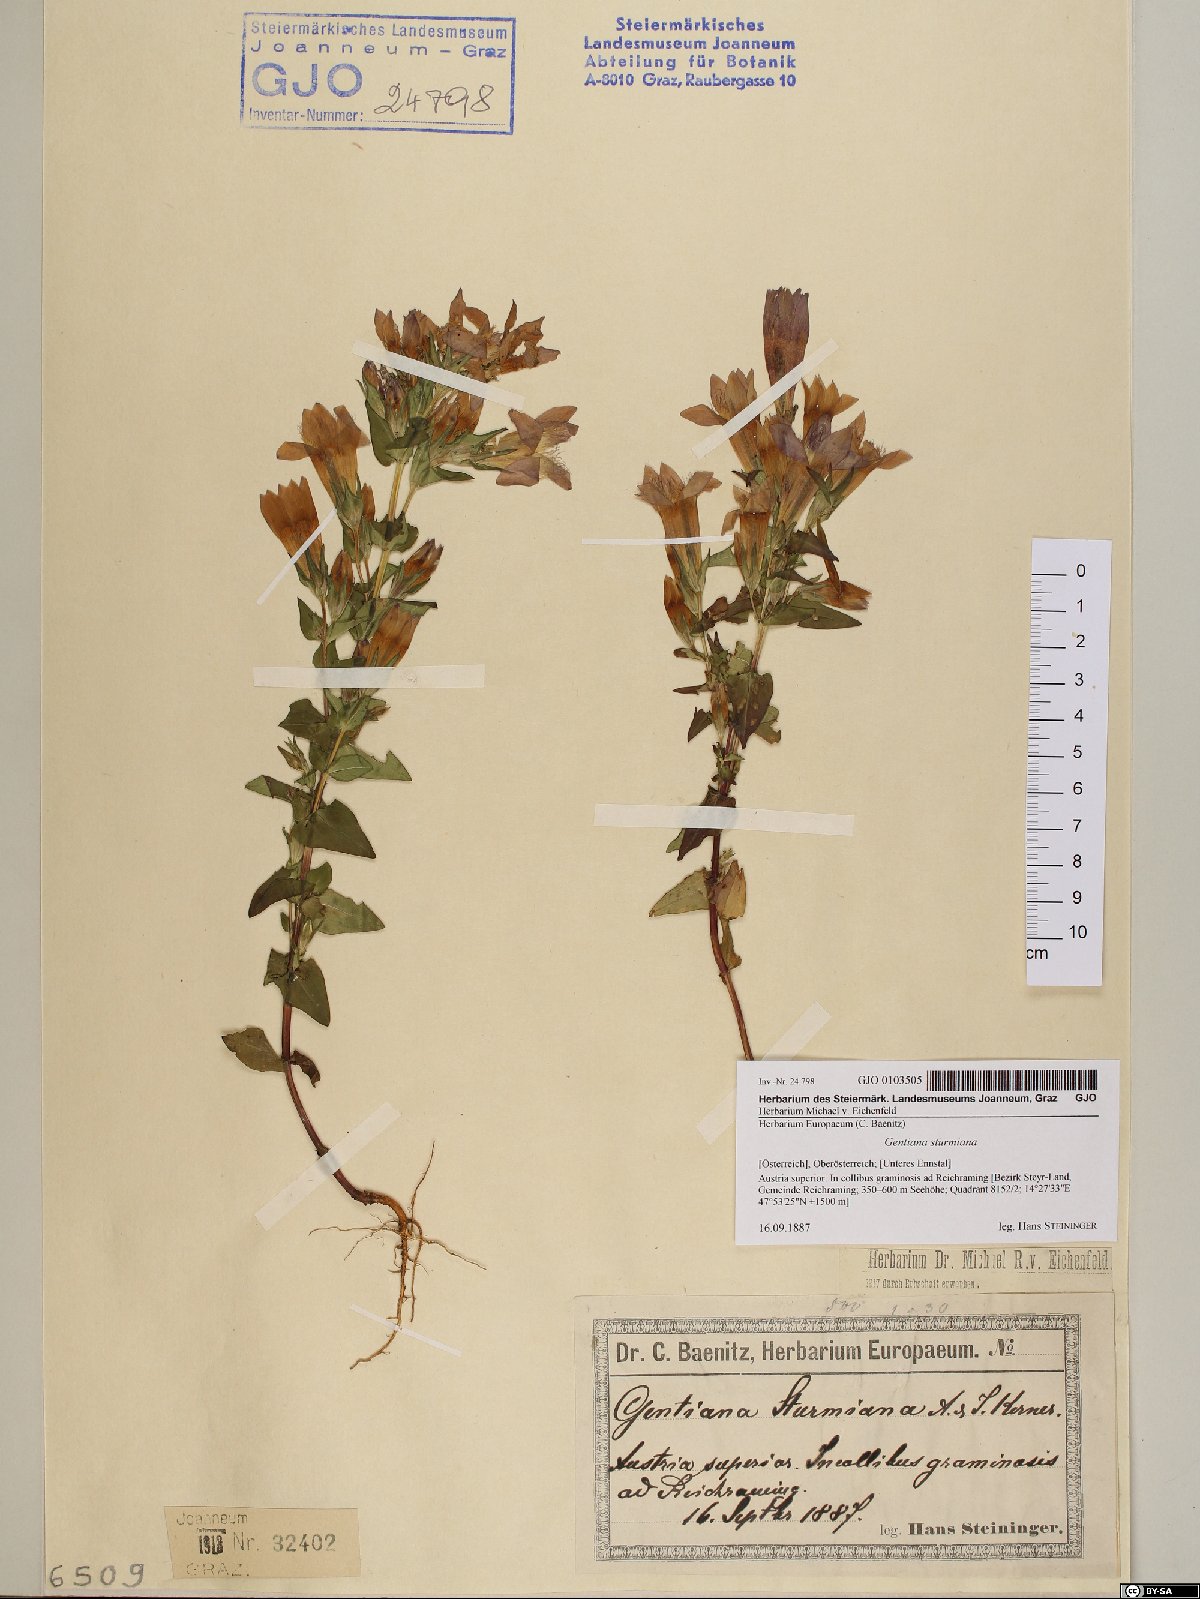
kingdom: Plantae
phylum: Tracheophyta
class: Magnoliopsida
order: Gentianales
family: Gentianaceae
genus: Gentianella
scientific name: Gentianella obtusifolia
